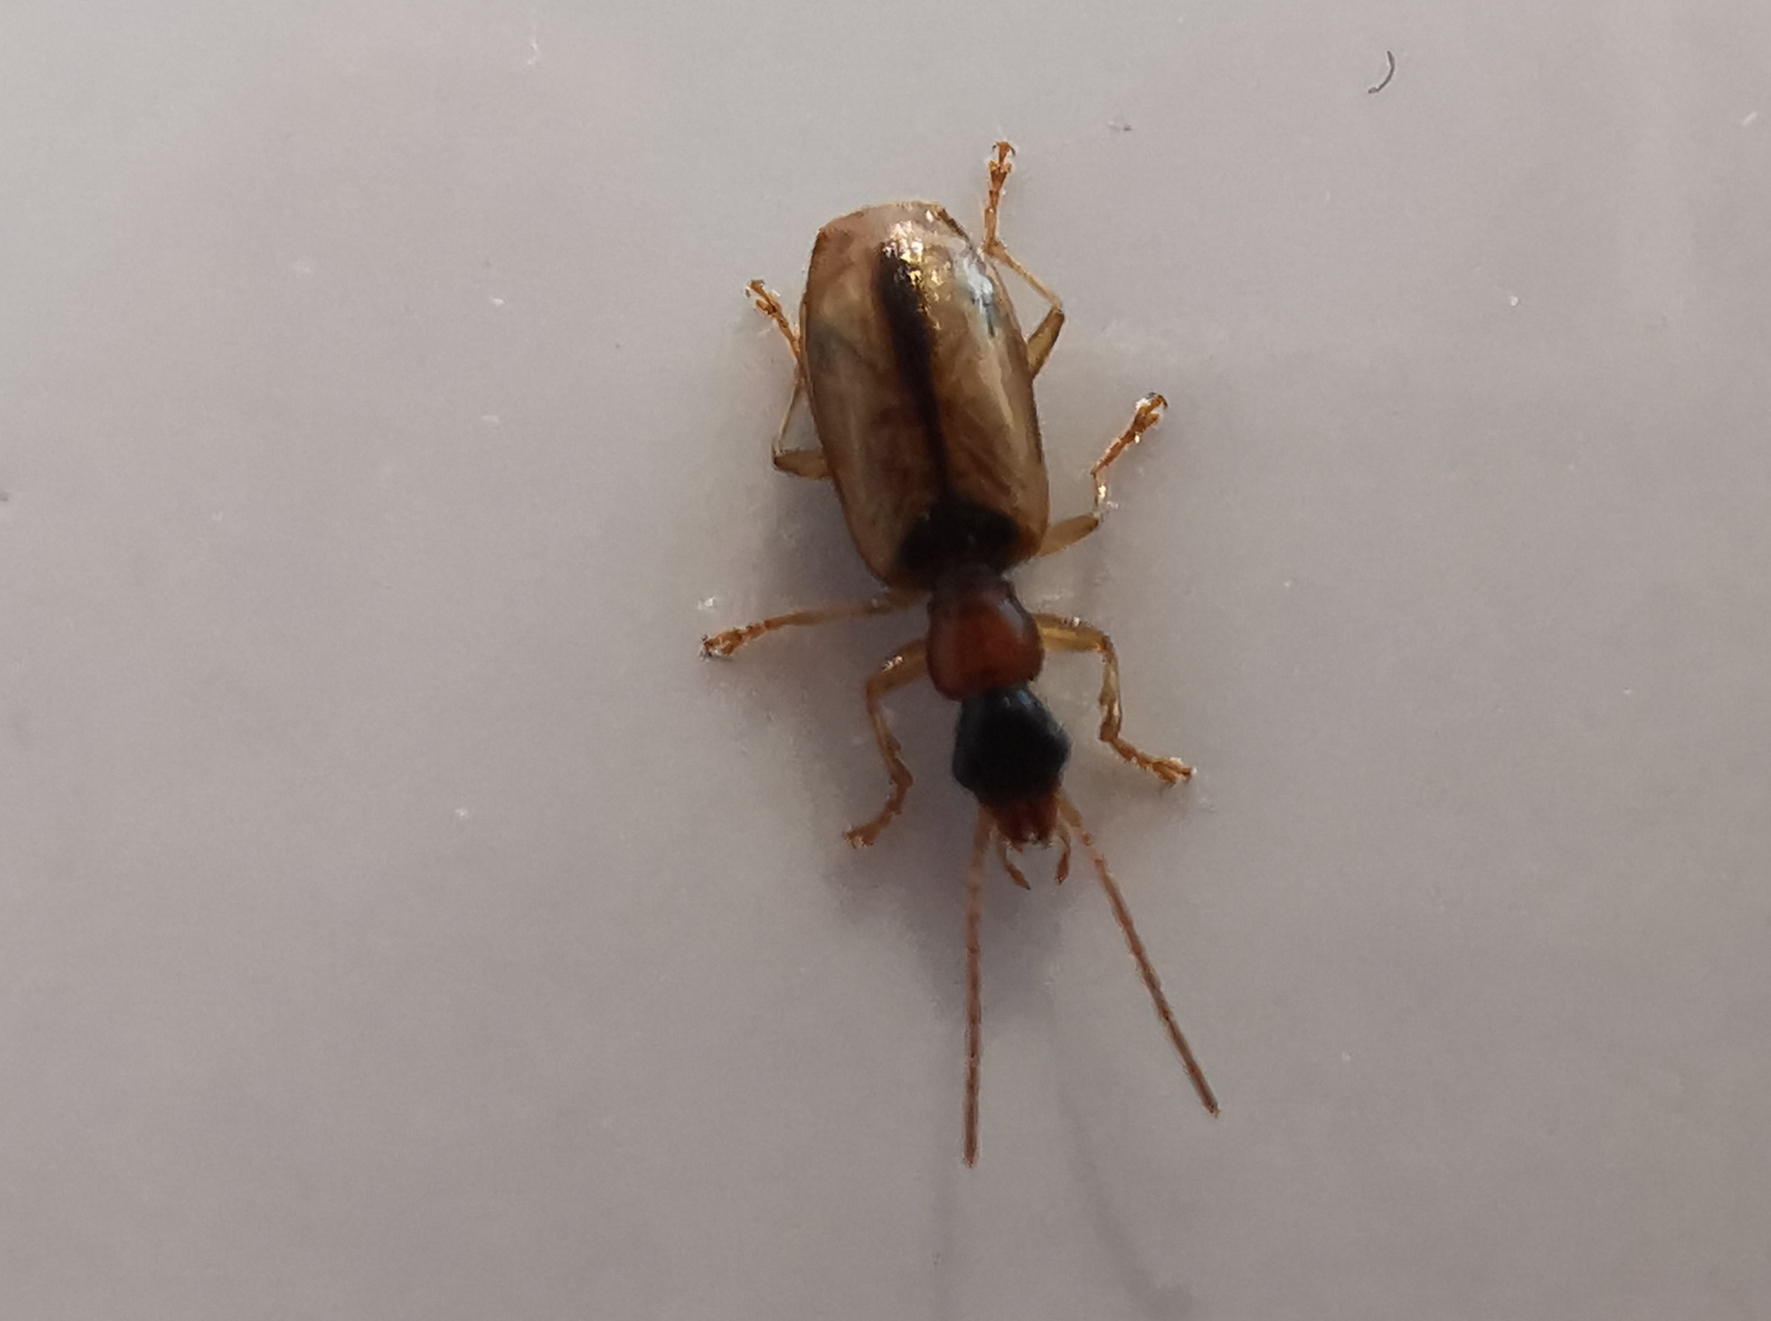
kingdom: Animalia
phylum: Arthropoda
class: Insecta
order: Coleoptera
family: Carabidae
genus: Demetrias
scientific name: Demetrias atricapillus
